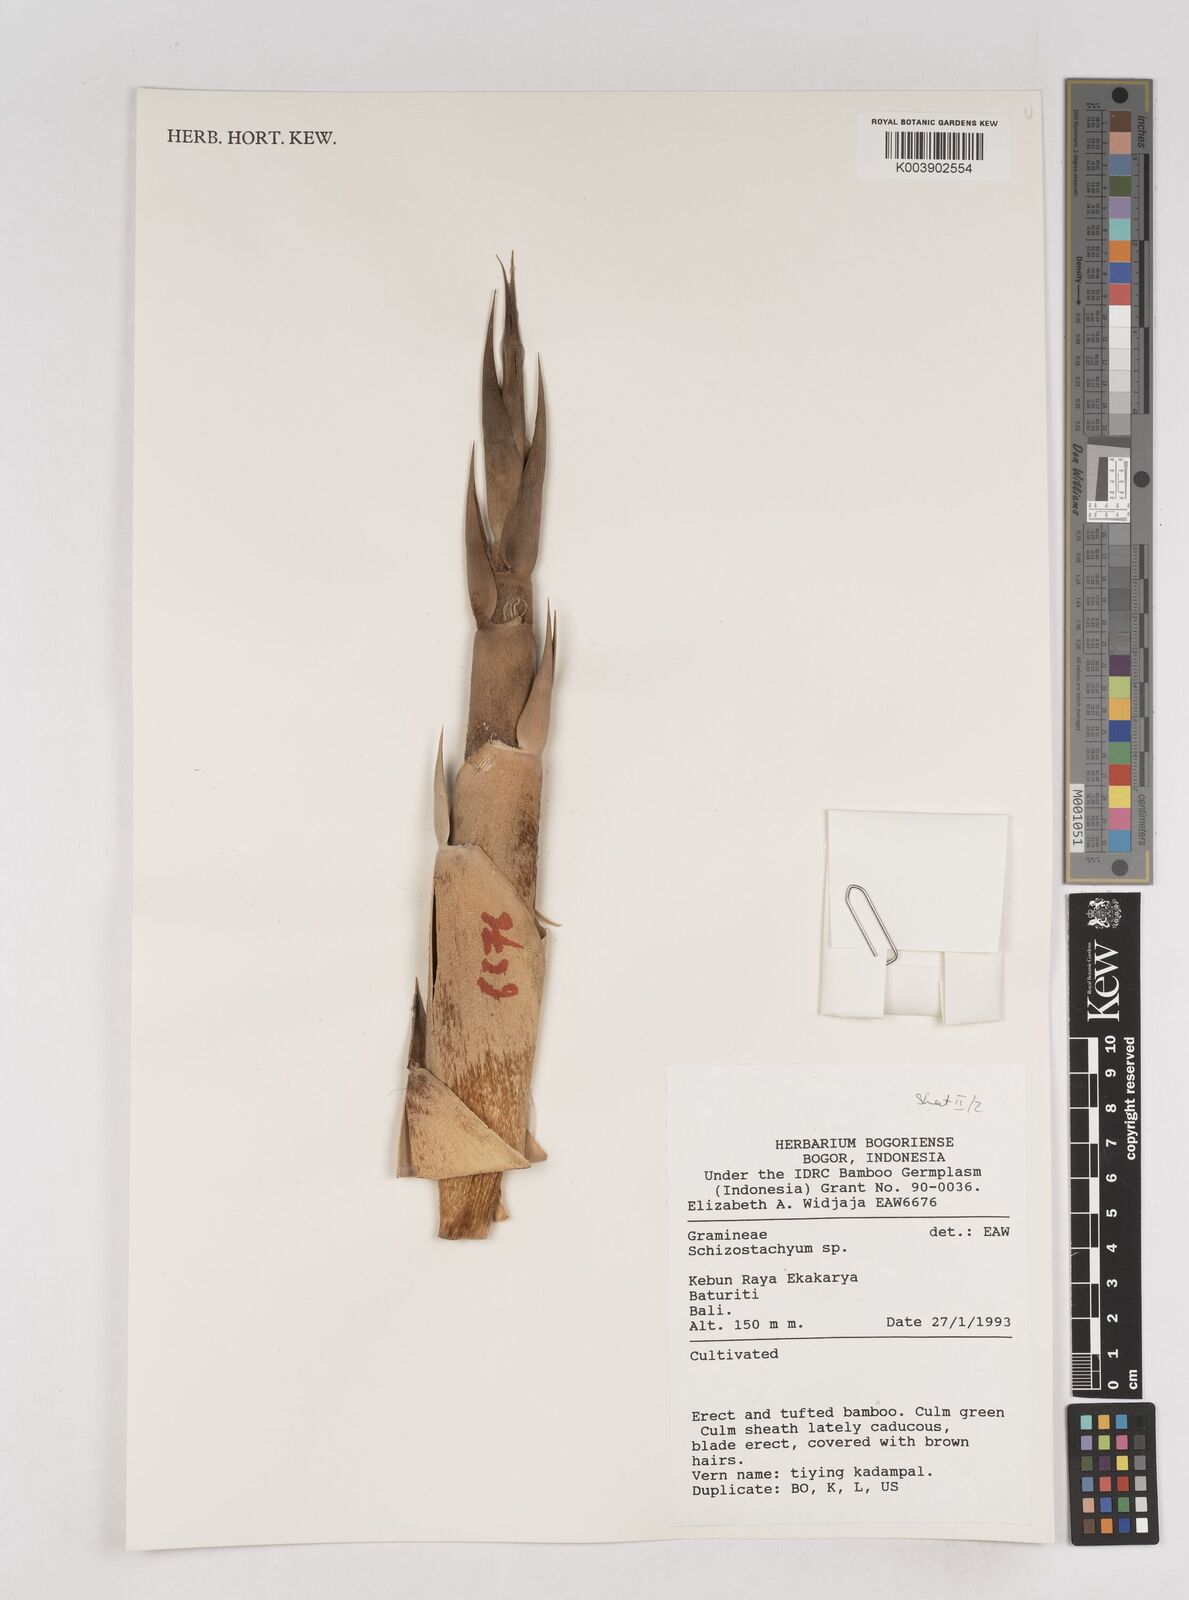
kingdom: Plantae
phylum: Tracheophyta
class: Liliopsida
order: Poales
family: Poaceae
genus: Schizostachyum
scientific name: Schizostachyum
